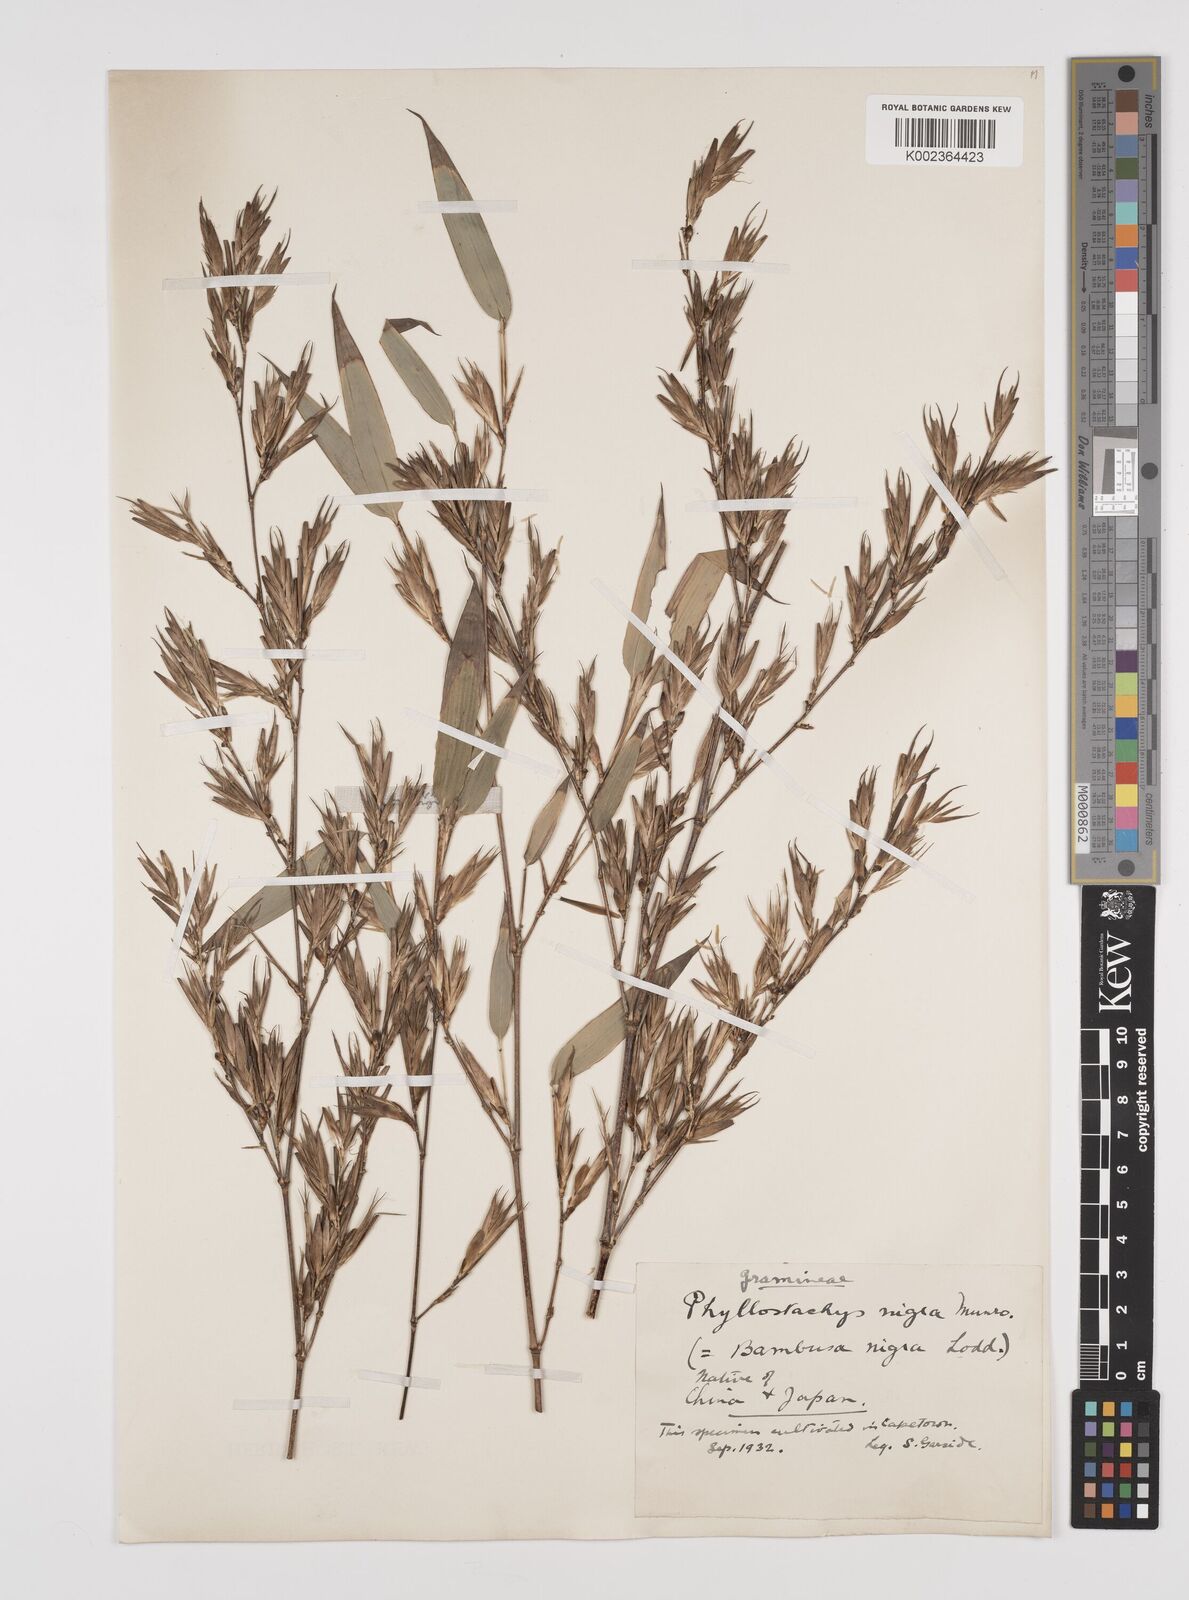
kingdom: Plantae
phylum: Tracheophyta
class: Liliopsida
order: Poales
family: Poaceae
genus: Phyllostachys
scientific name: Phyllostachys nigra
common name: Black bamboo
